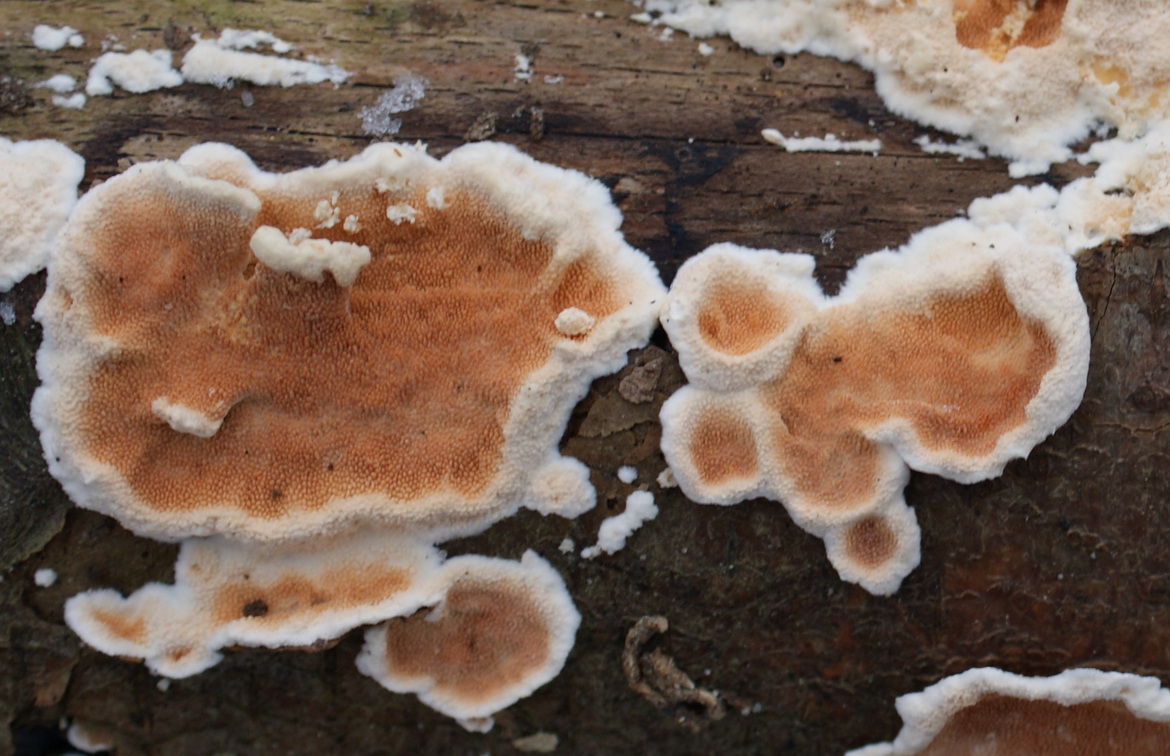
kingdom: Fungi
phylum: Basidiomycota
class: Agaricomycetes
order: Polyporales
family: Steccherinaceae
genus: Steccherinum
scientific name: Steccherinum ochraceum
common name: almindelig skønpig
